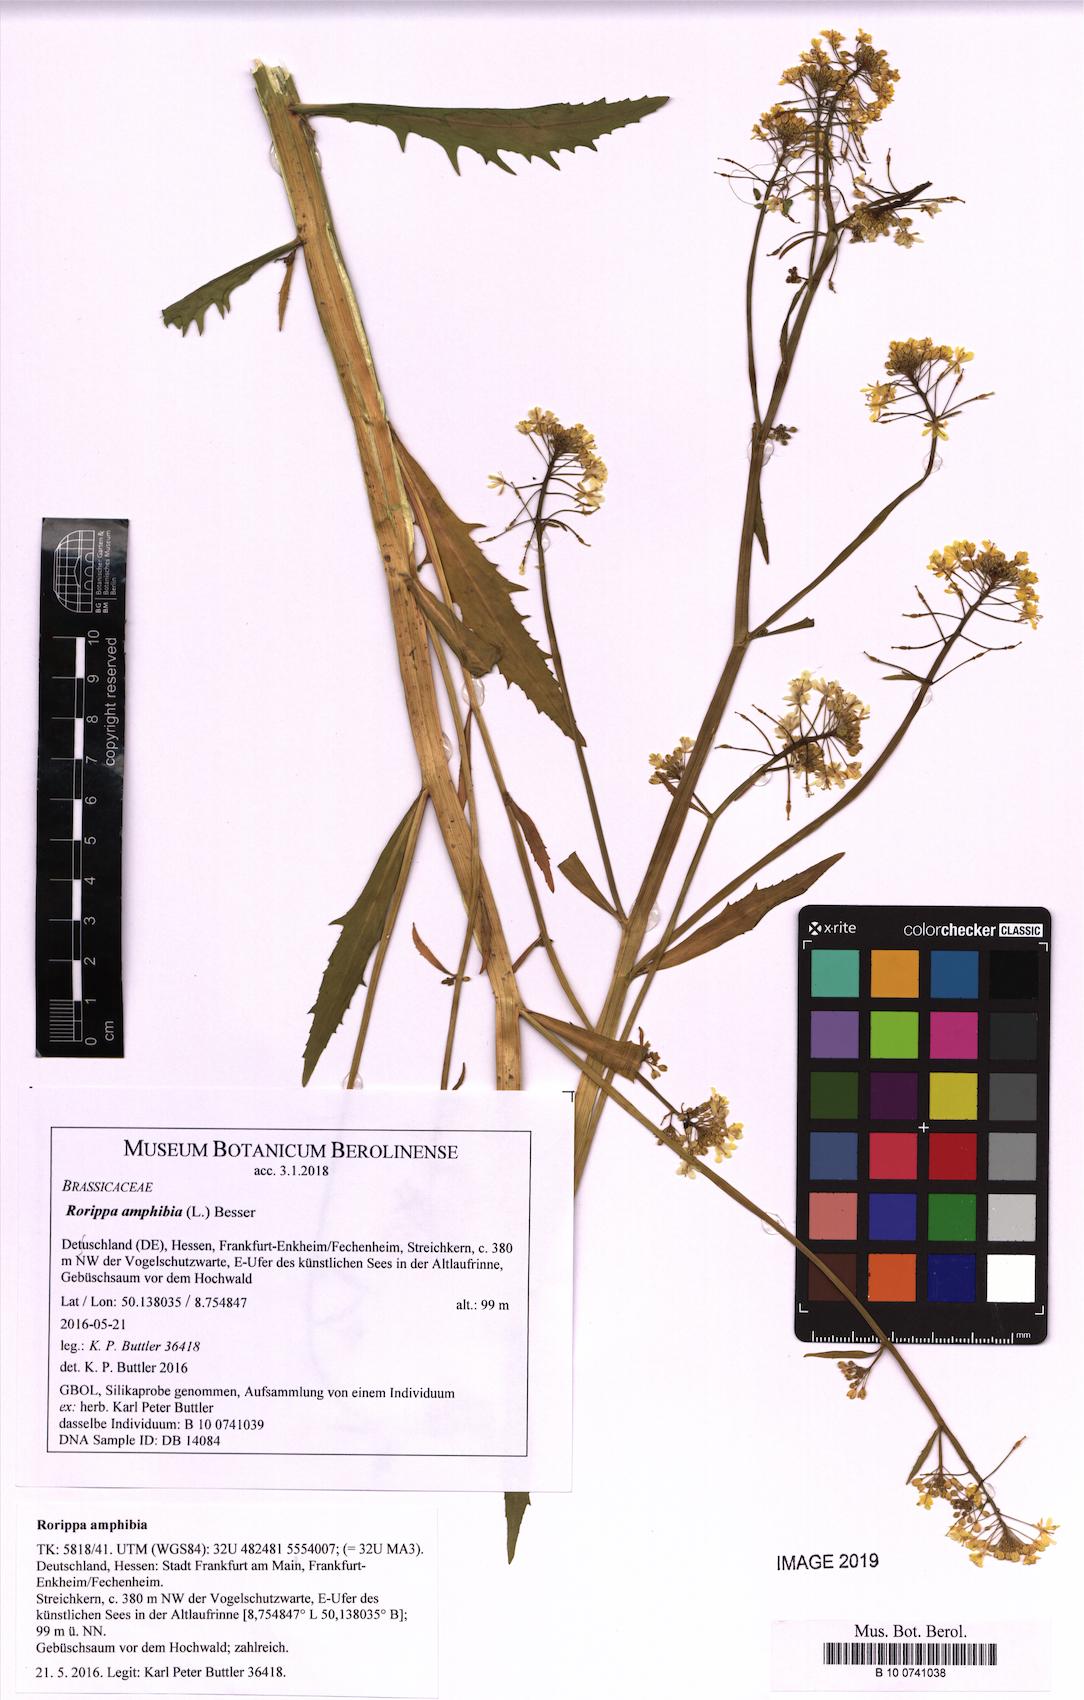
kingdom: Plantae
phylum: Tracheophyta
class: Magnoliopsida
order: Brassicales
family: Brassicaceae
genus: Rorippa
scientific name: Rorippa amphibia
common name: Great yellow-cress
